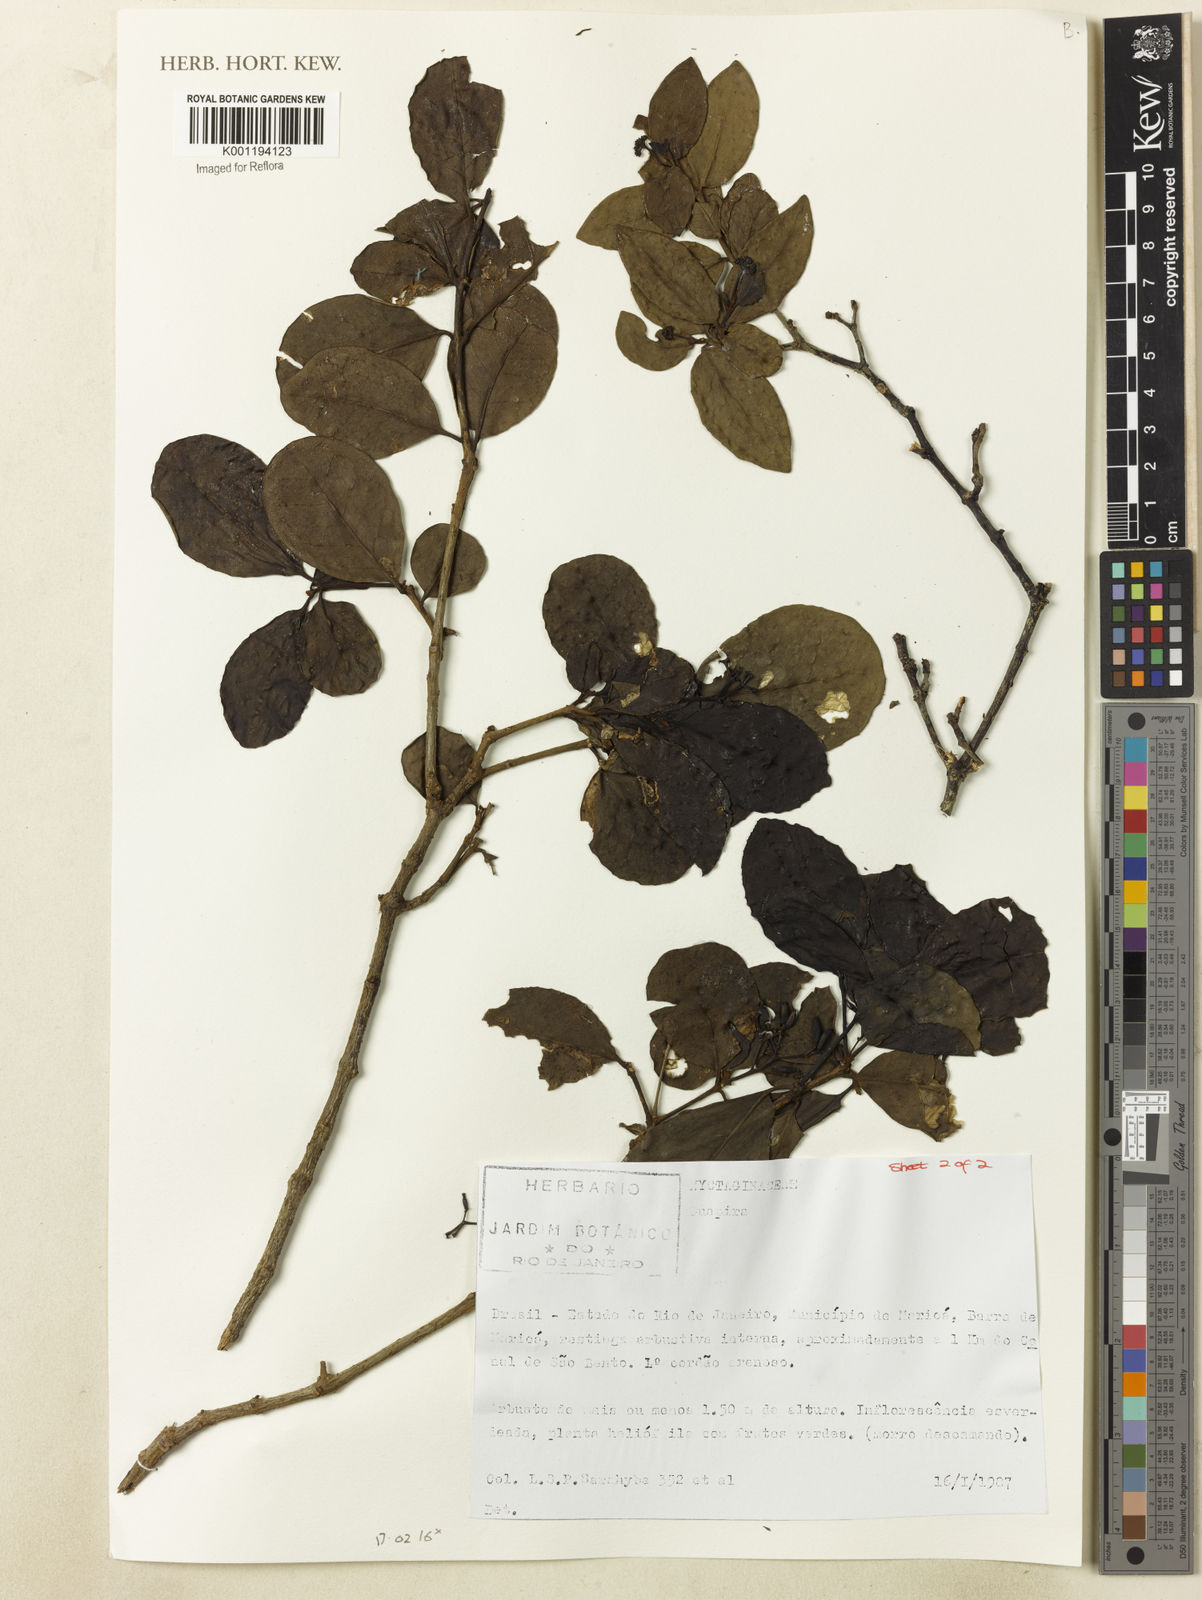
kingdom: Plantae
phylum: Tracheophyta
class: Magnoliopsida
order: Caryophyllales
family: Nyctaginaceae
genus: Guapira
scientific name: Guapira
